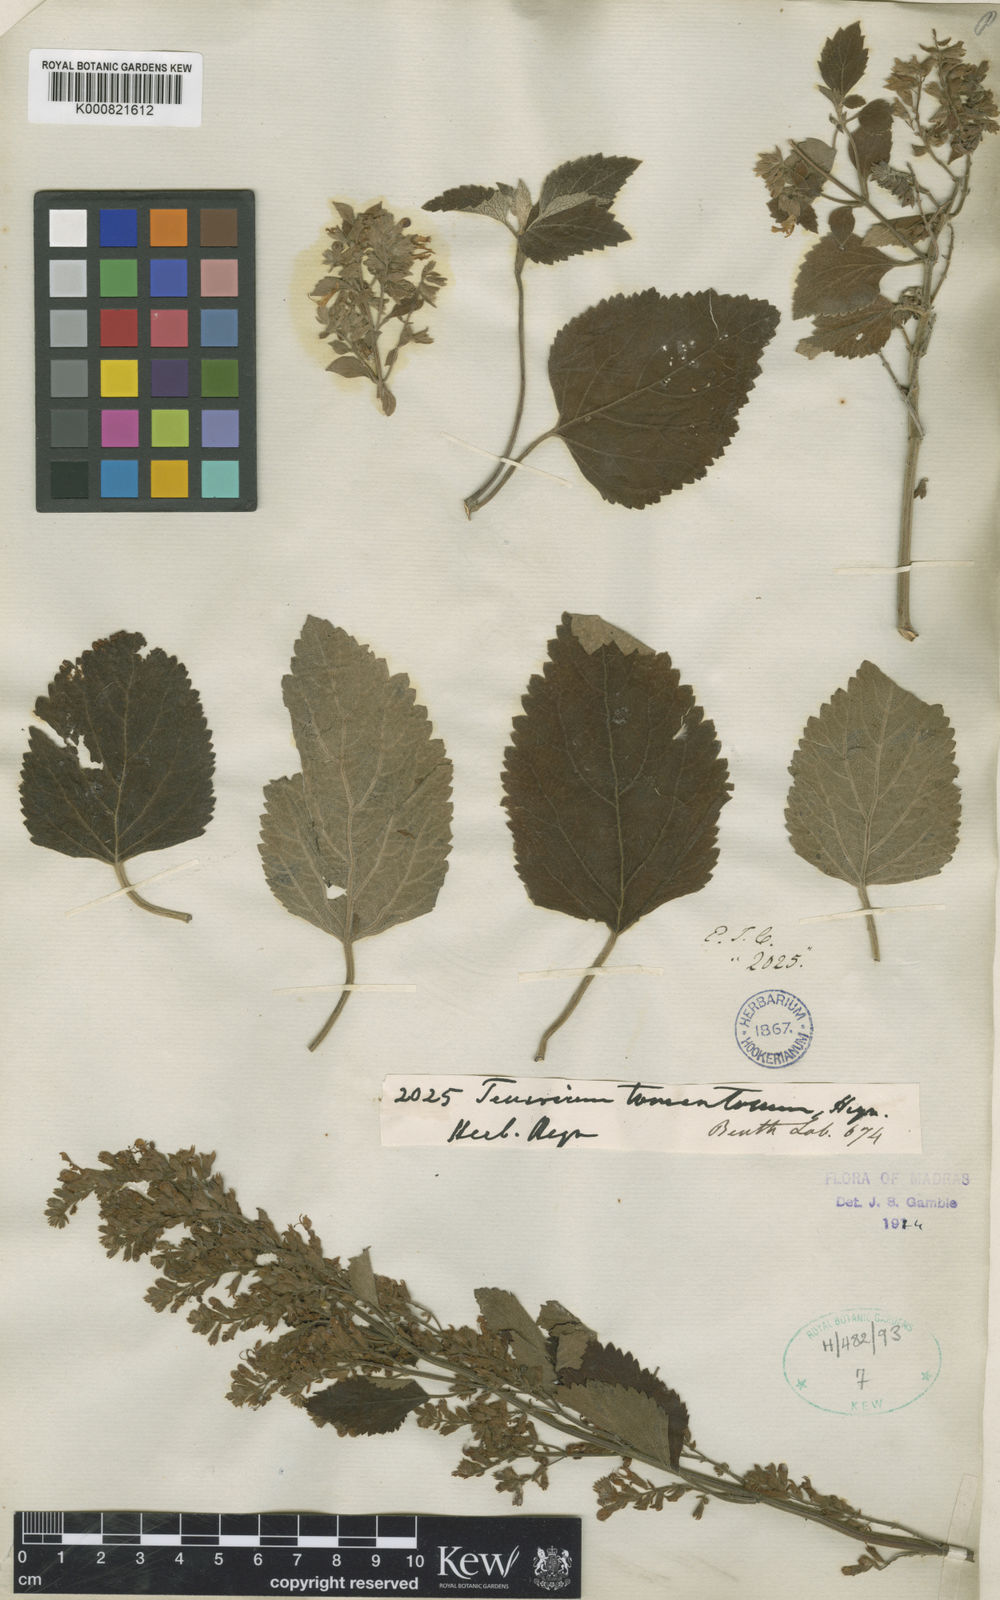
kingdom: Plantae
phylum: Tracheophyta
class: Magnoliopsida
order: Lamiales
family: Lamiaceae
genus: Teucrium
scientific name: Teucrium heynei
